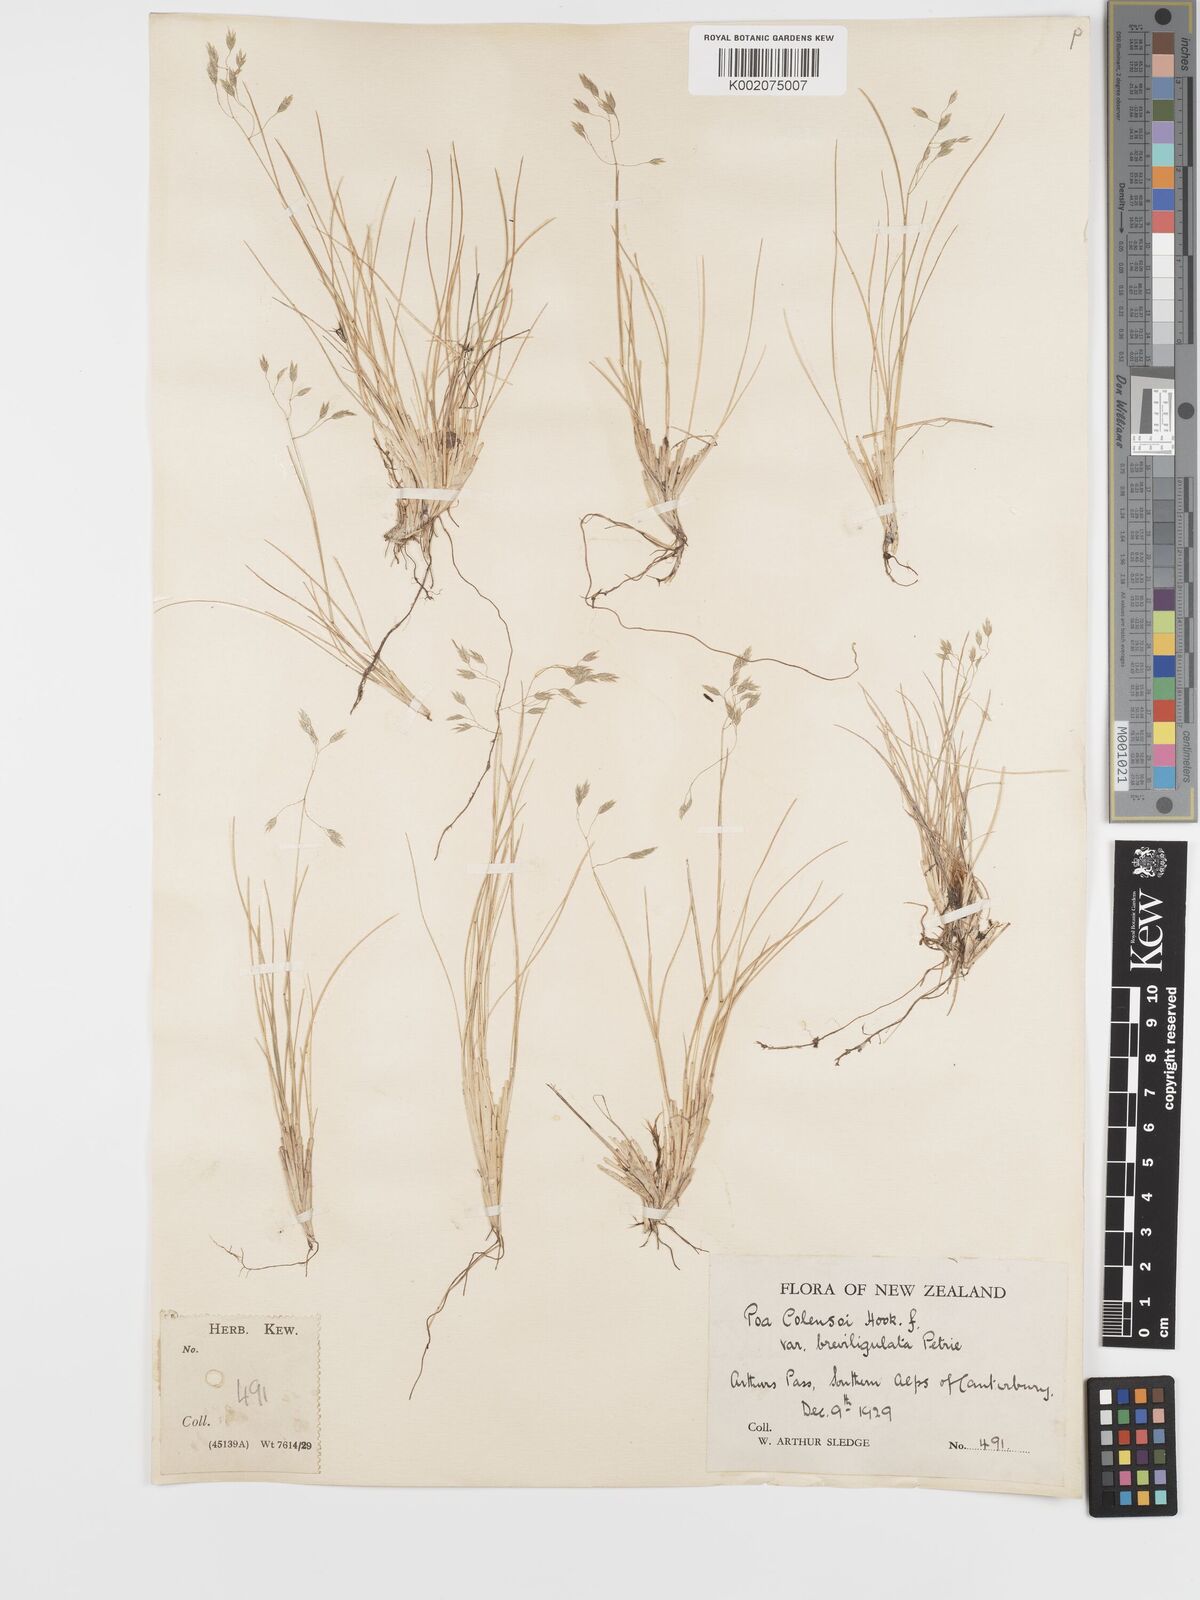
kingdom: Plantae
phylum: Tracheophyta
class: Liliopsida
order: Poales
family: Poaceae
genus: Poa
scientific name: Poa colensoi
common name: Blue tussock
